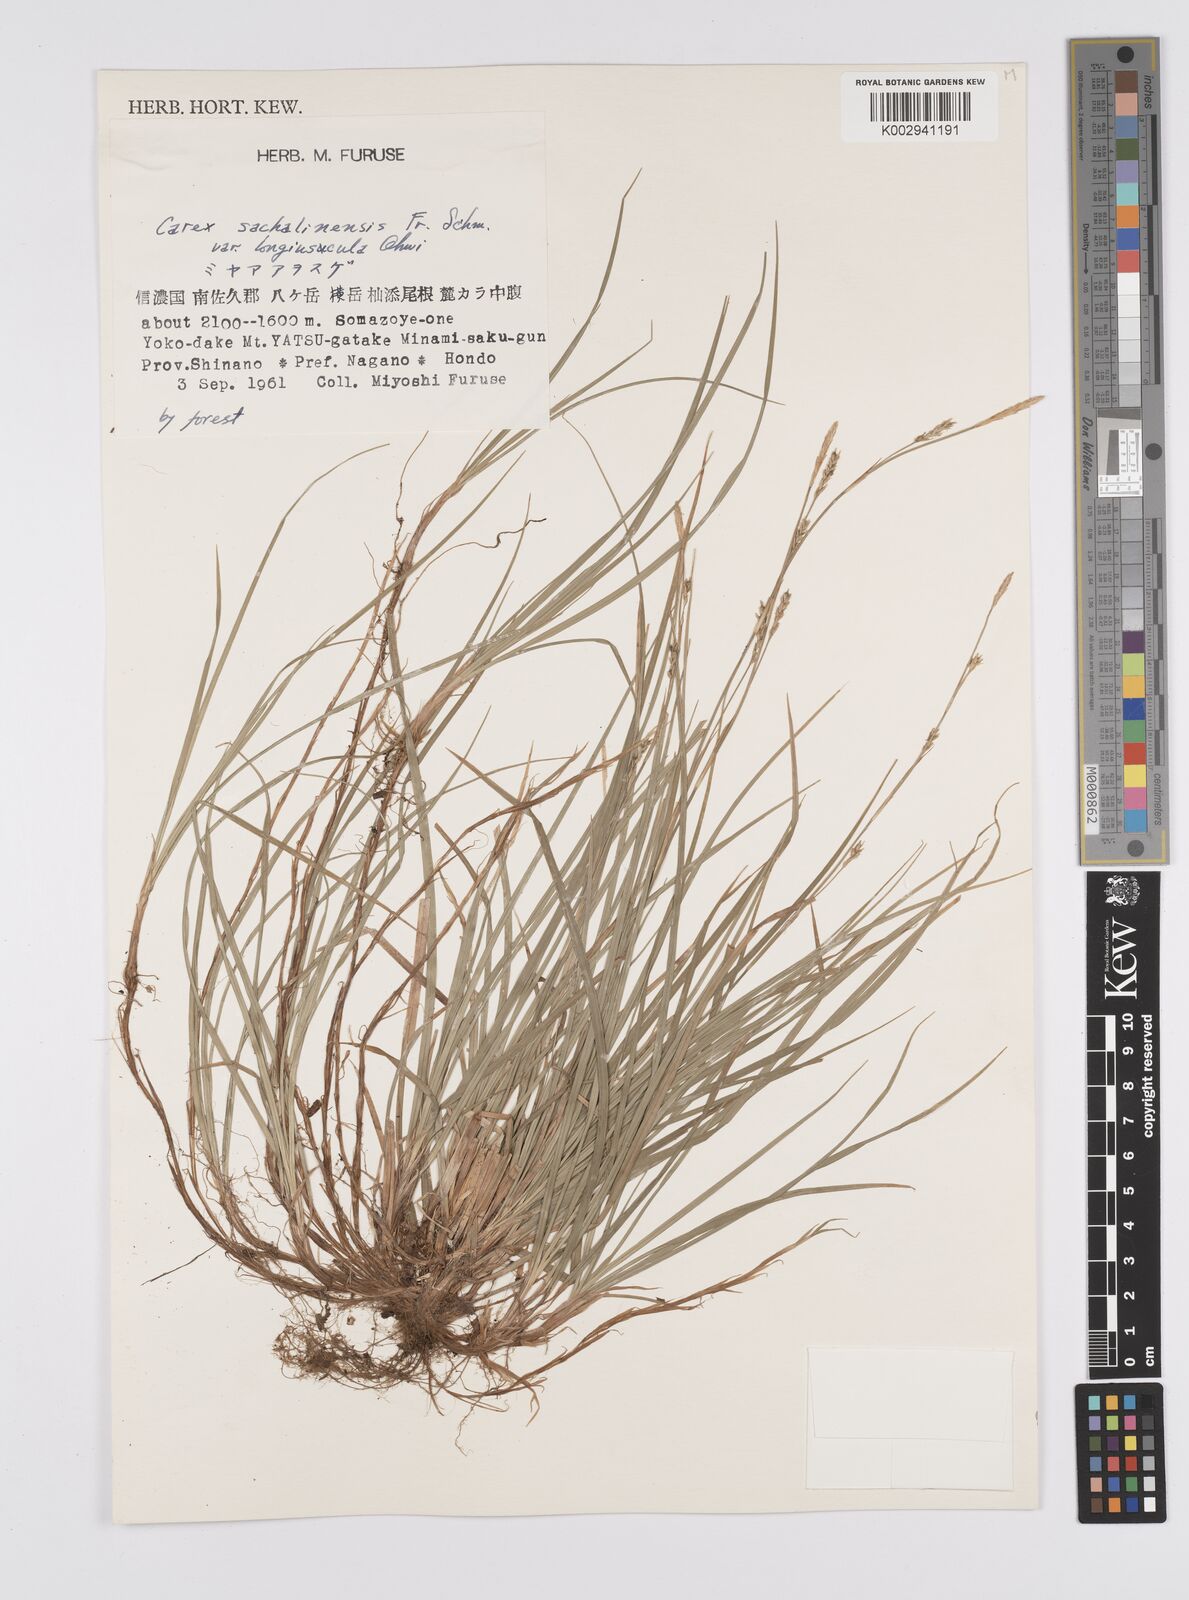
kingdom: Plantae
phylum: Tracheophyta
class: Liliopsida
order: Poales
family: Cyperaceae
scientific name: Cyperaceae
